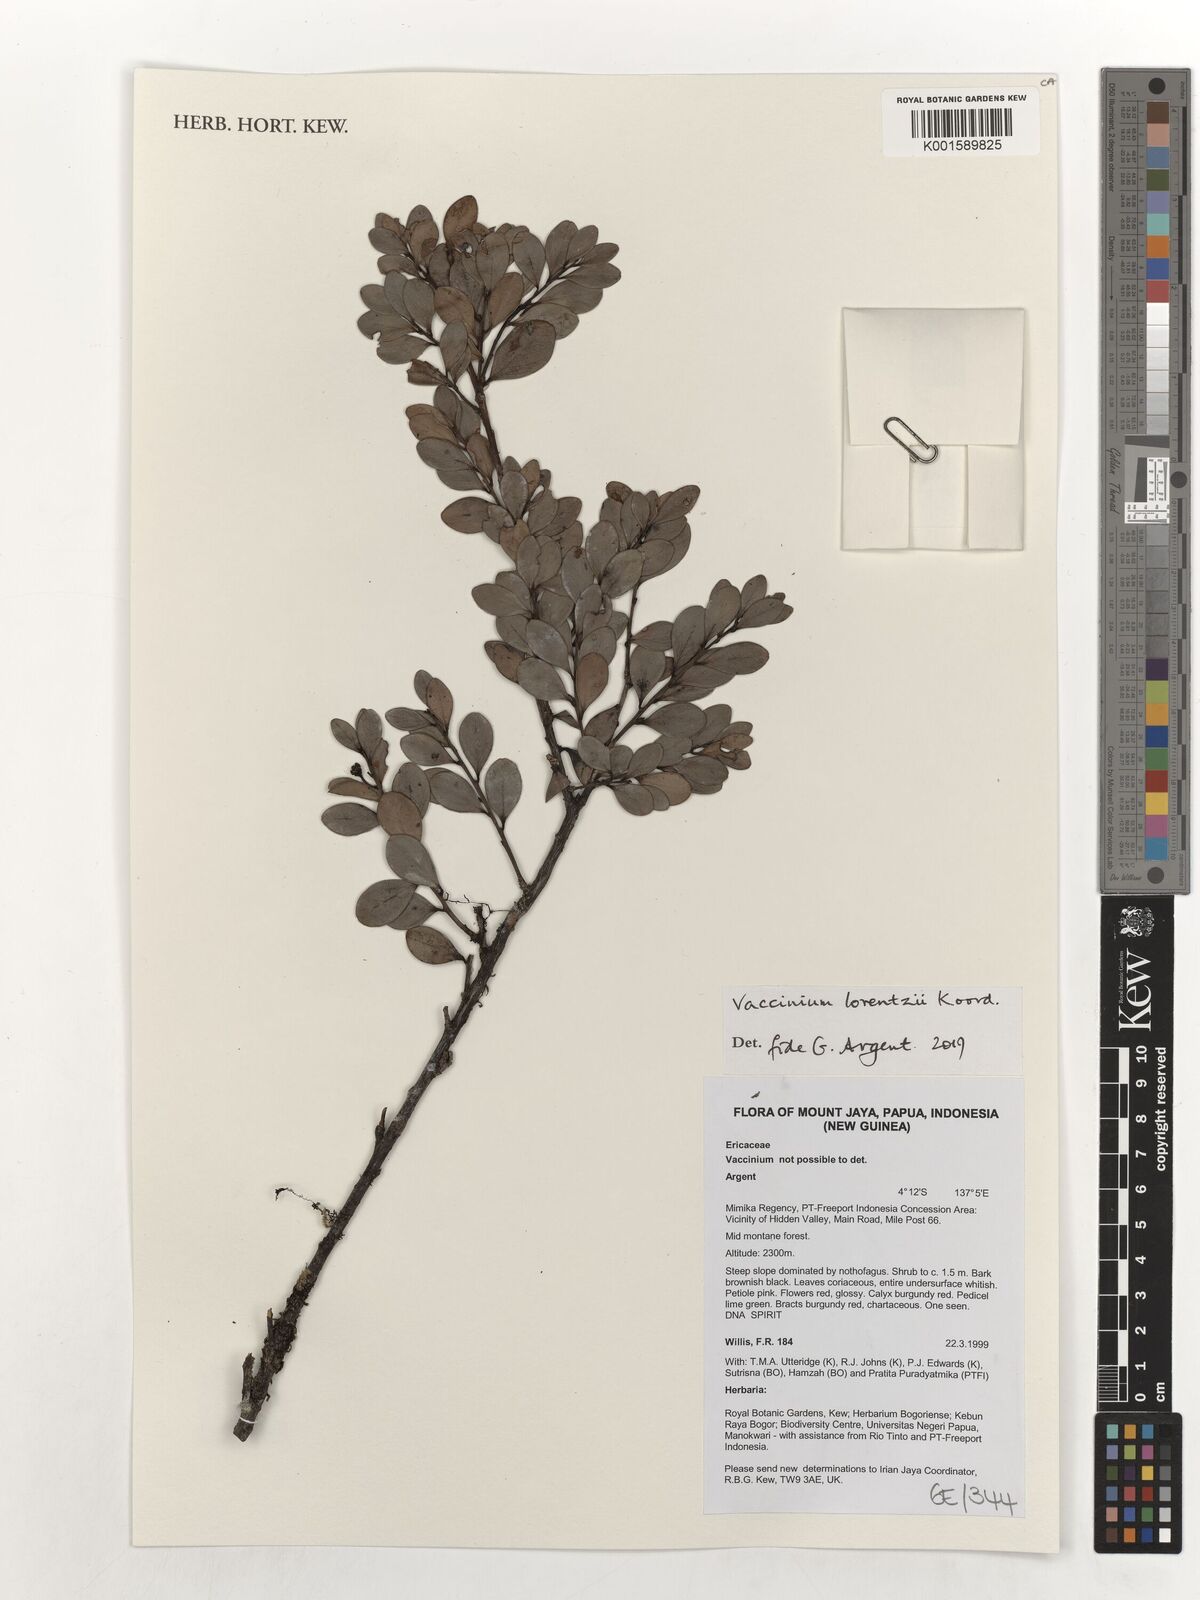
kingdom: Plantae
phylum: Tracheophyta
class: Magnoliopsida
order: Ericales
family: Ericaceae
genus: Vaccinium
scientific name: Vaccinium lorentzii
